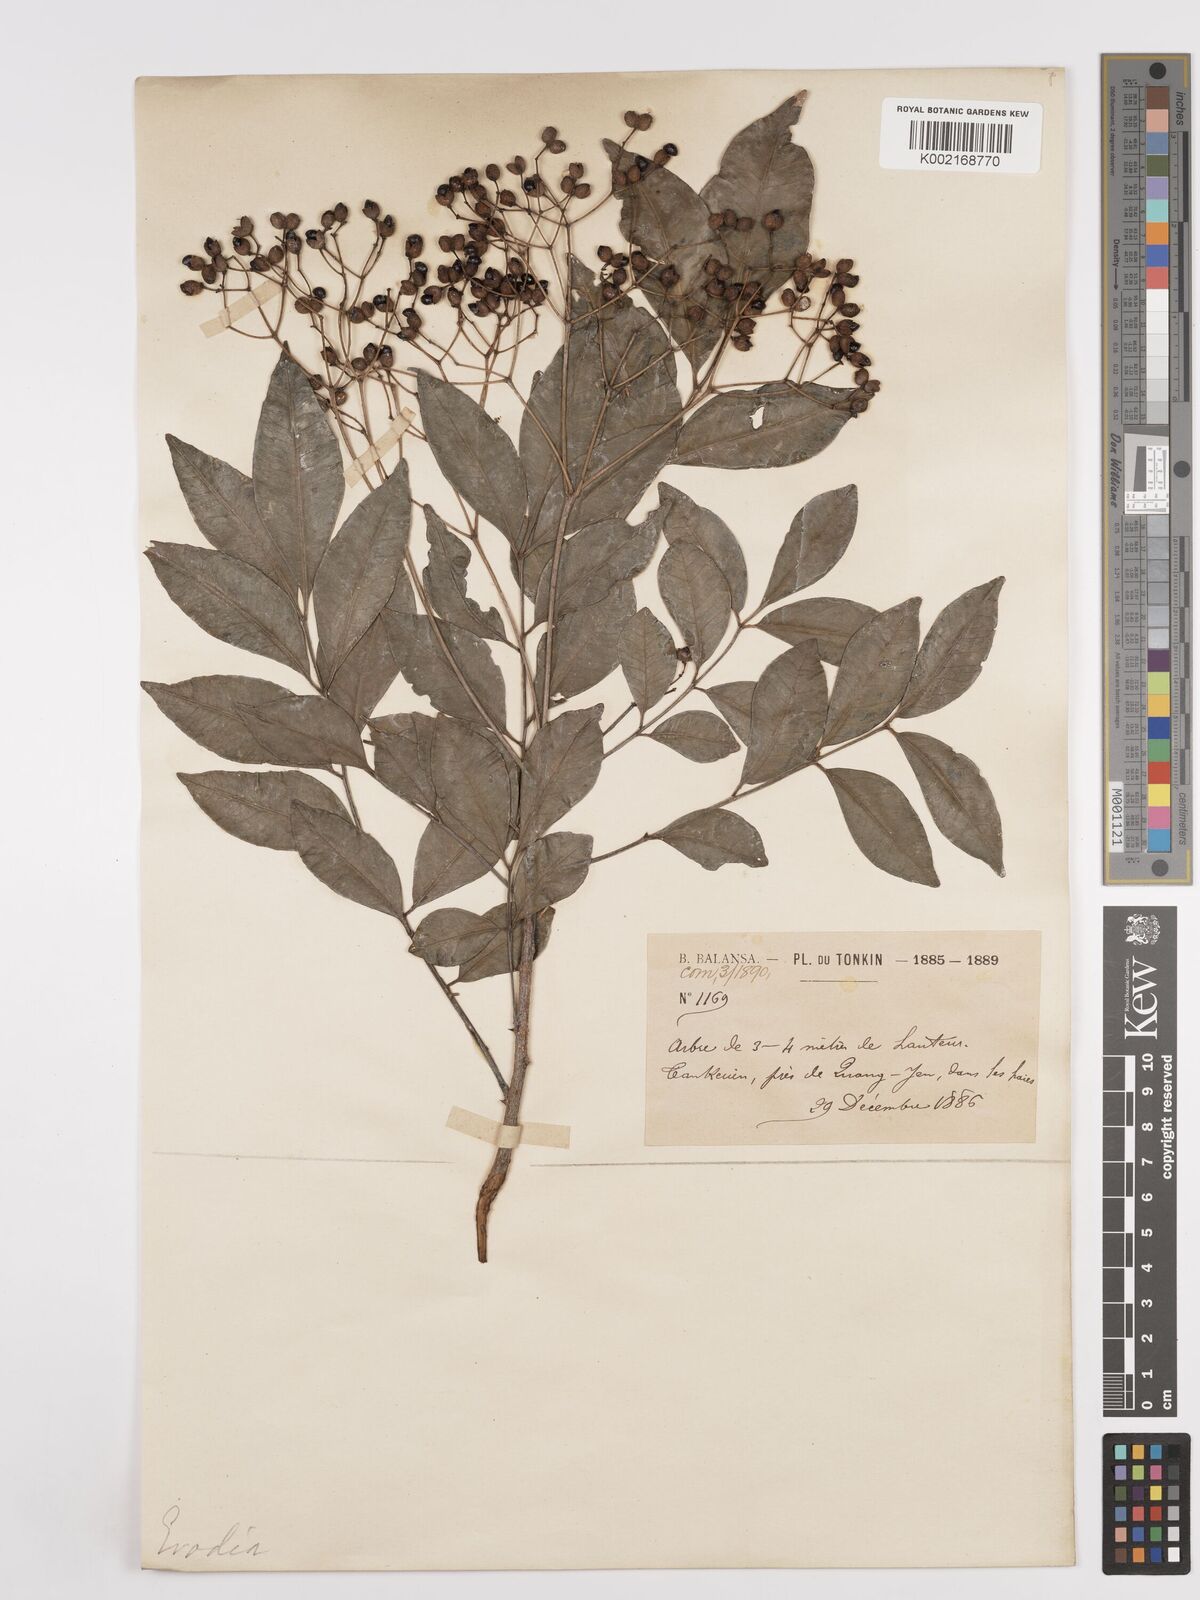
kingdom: Plantae
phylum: Tracheophyta
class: Magnoliopsida
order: Sapindales
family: Rutaceae
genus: Euodia
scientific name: Euodia
